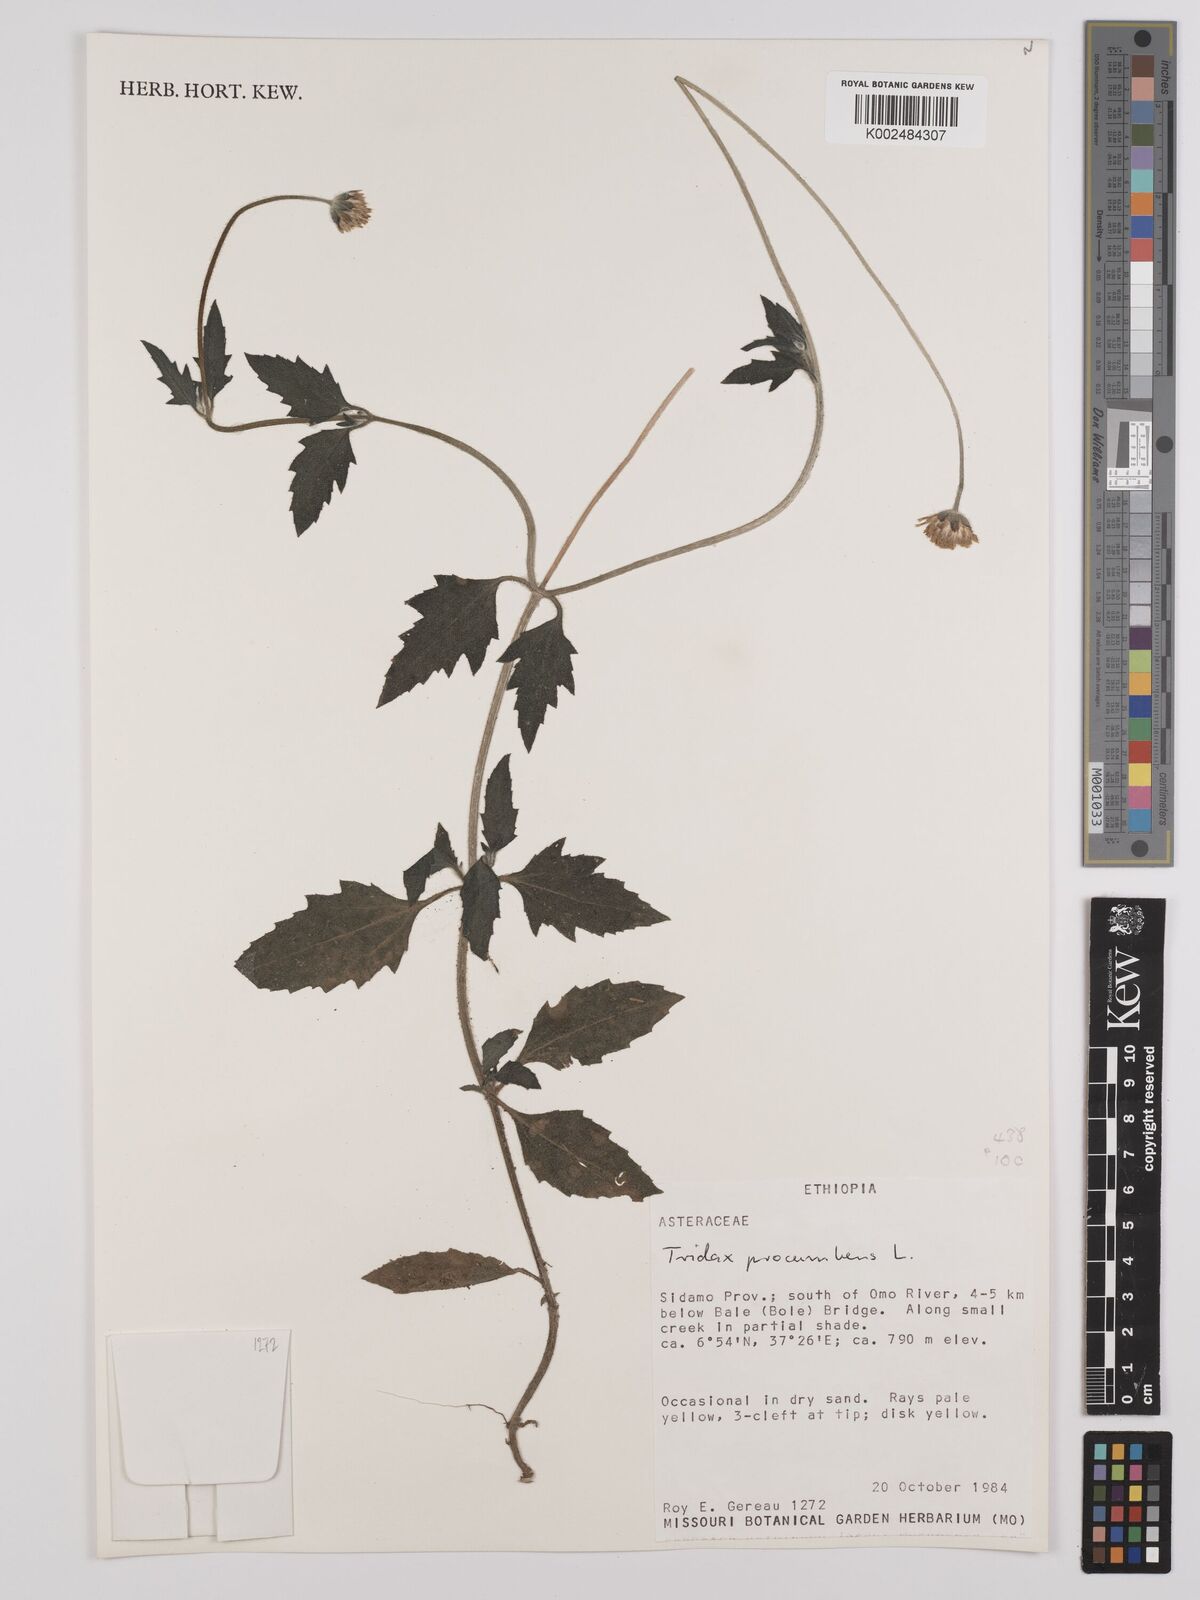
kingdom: Plantae
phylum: Tracheophyta
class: Magnoliopsida
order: Asterales
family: Asteraceae
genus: Tridax
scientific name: Tridax procumbens
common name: Coatbuttons
